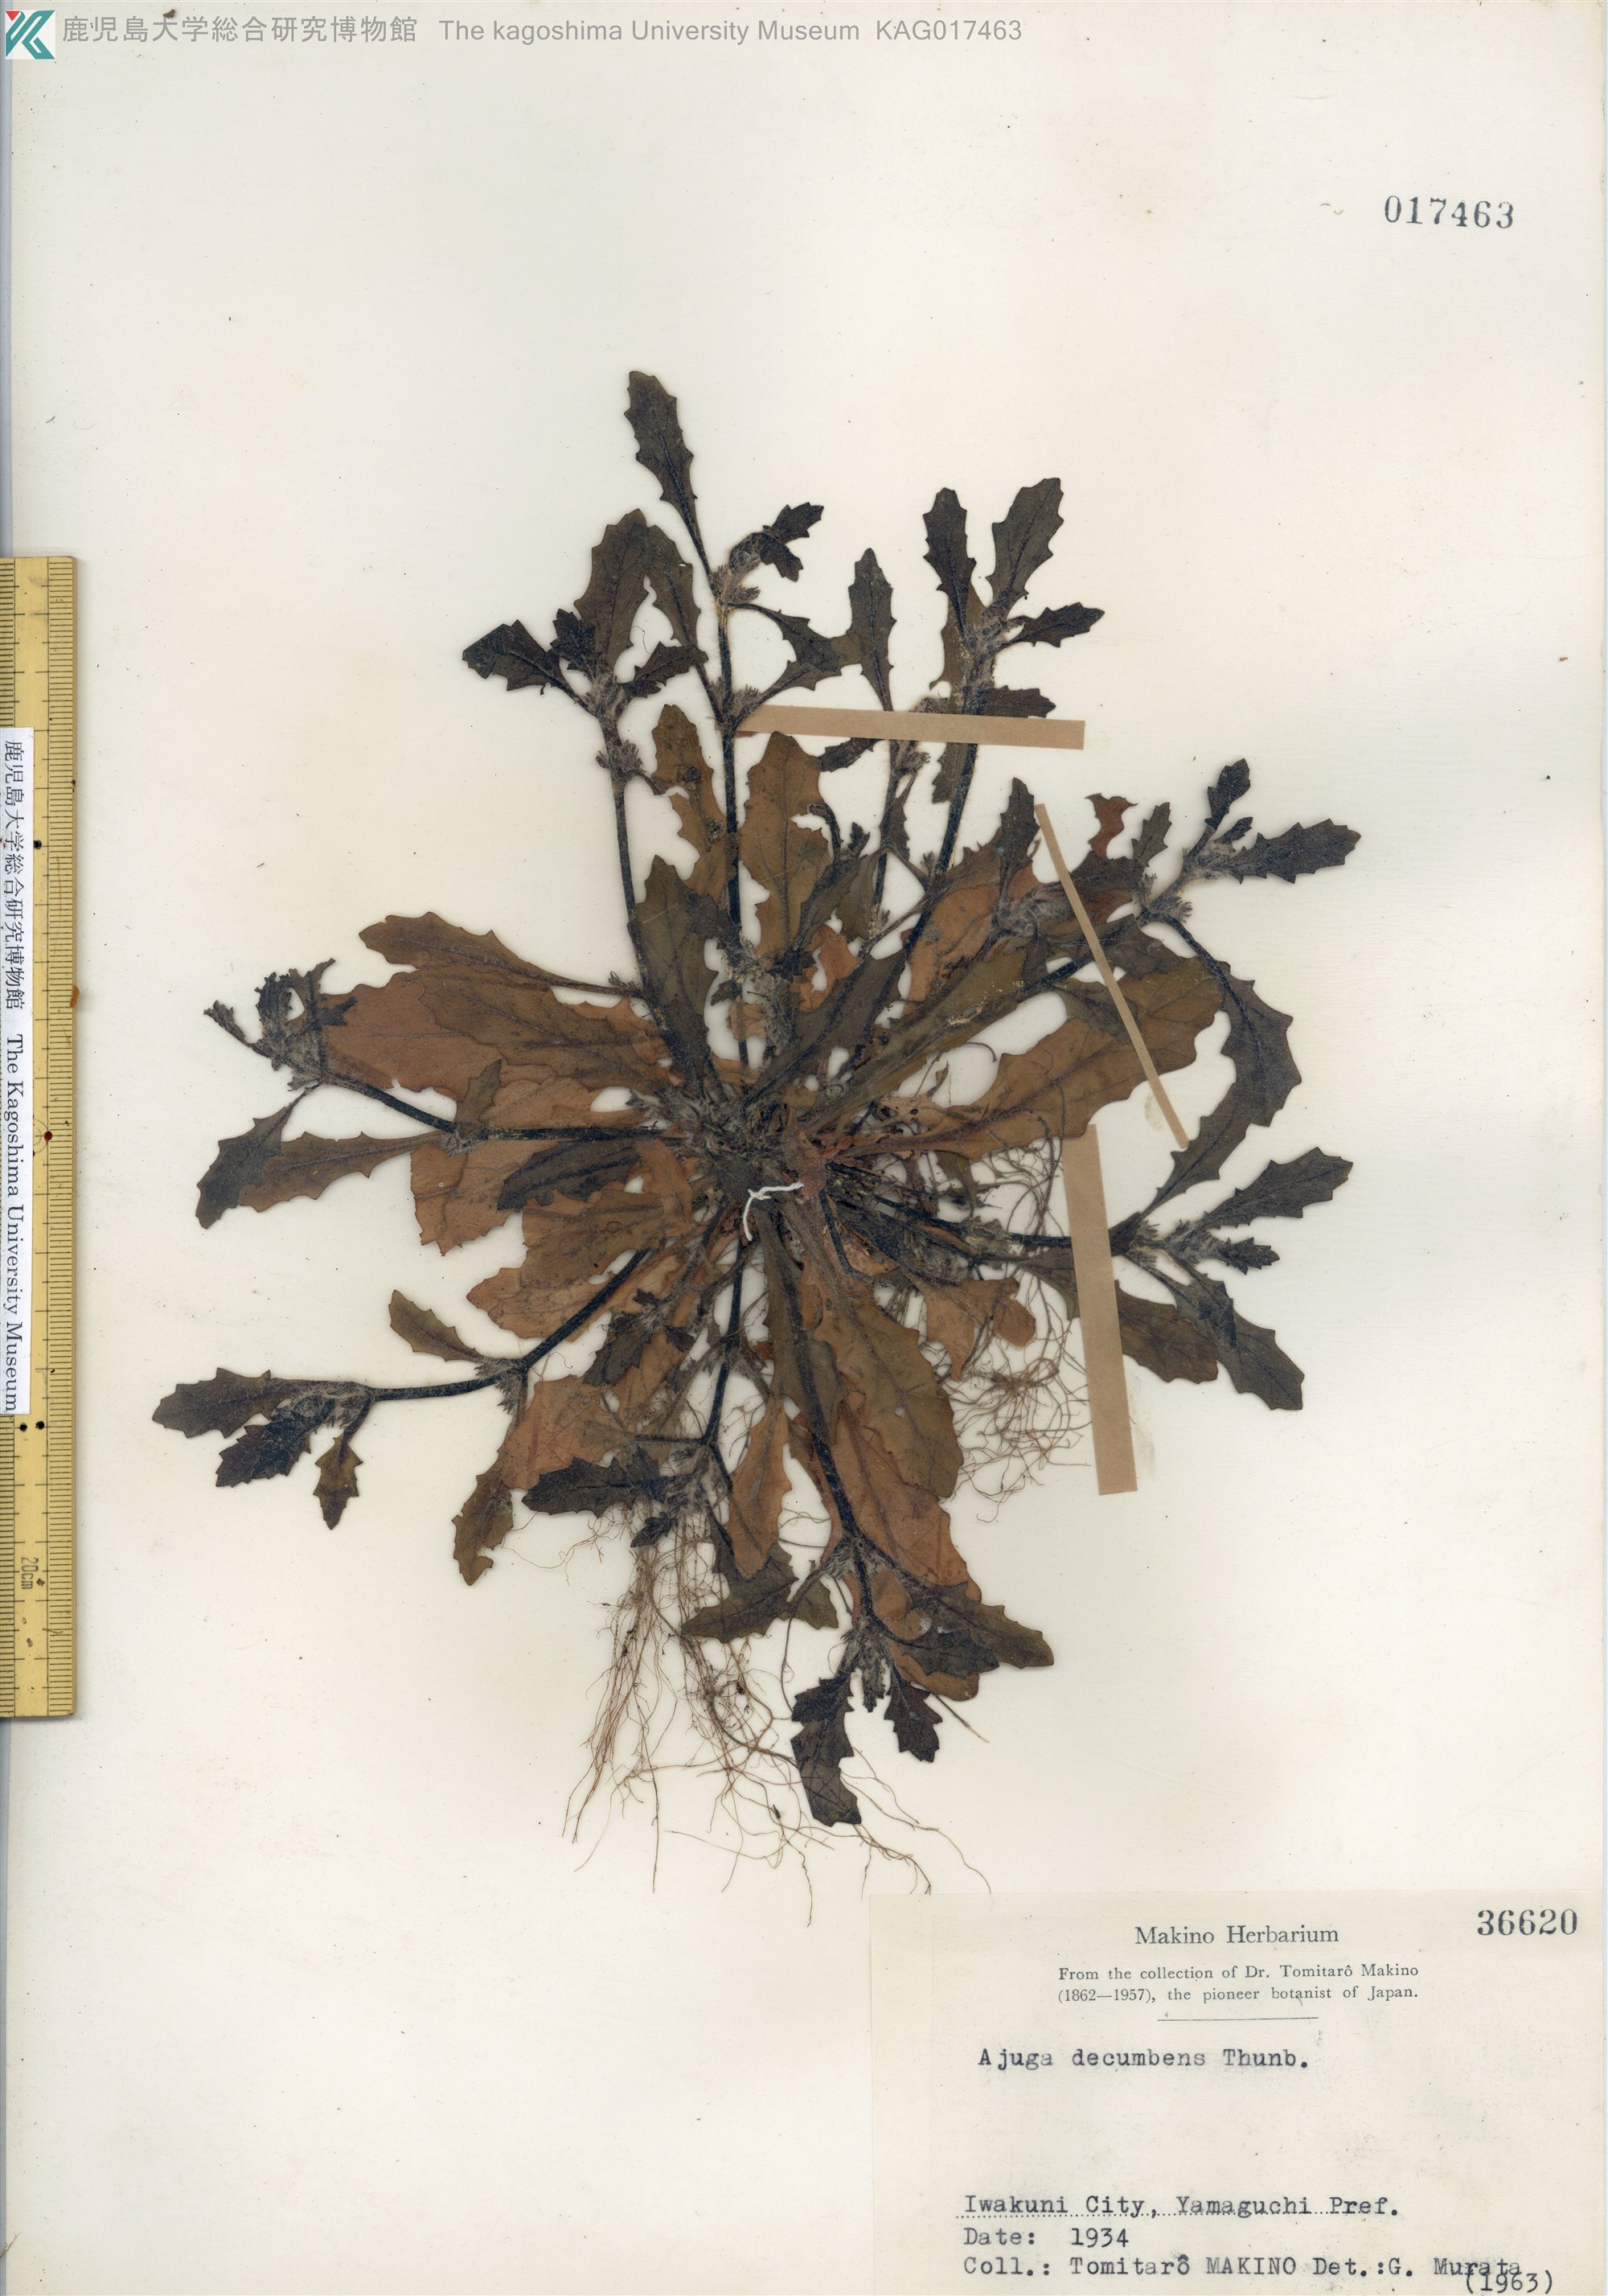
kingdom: Plantae
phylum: Tracheophyta
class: Magnoliopsida
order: Lamiales
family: Lamiaceae
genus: Ajuga
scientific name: Ajuga decumbens
